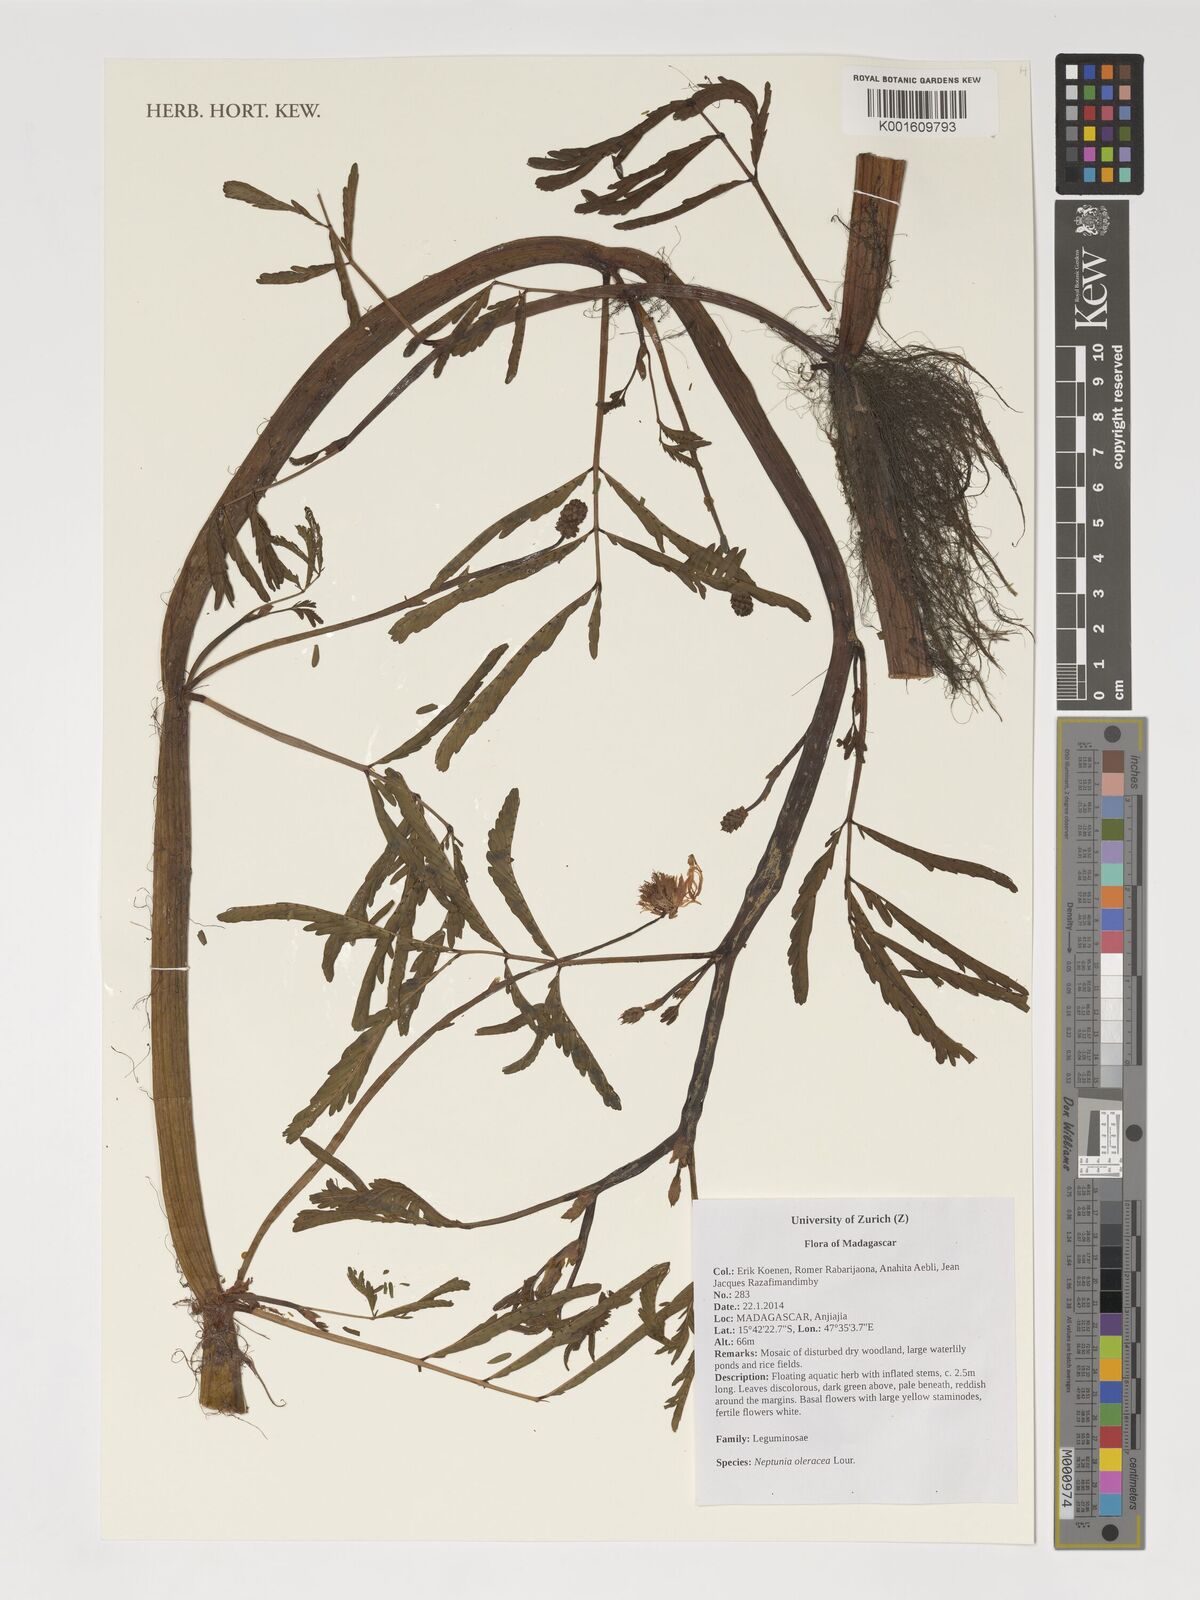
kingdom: Plantae
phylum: Tracheophyta
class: Magnoliopsida
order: Fabales
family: Fabaceae
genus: Neptunia
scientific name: Neptunia prostrata
